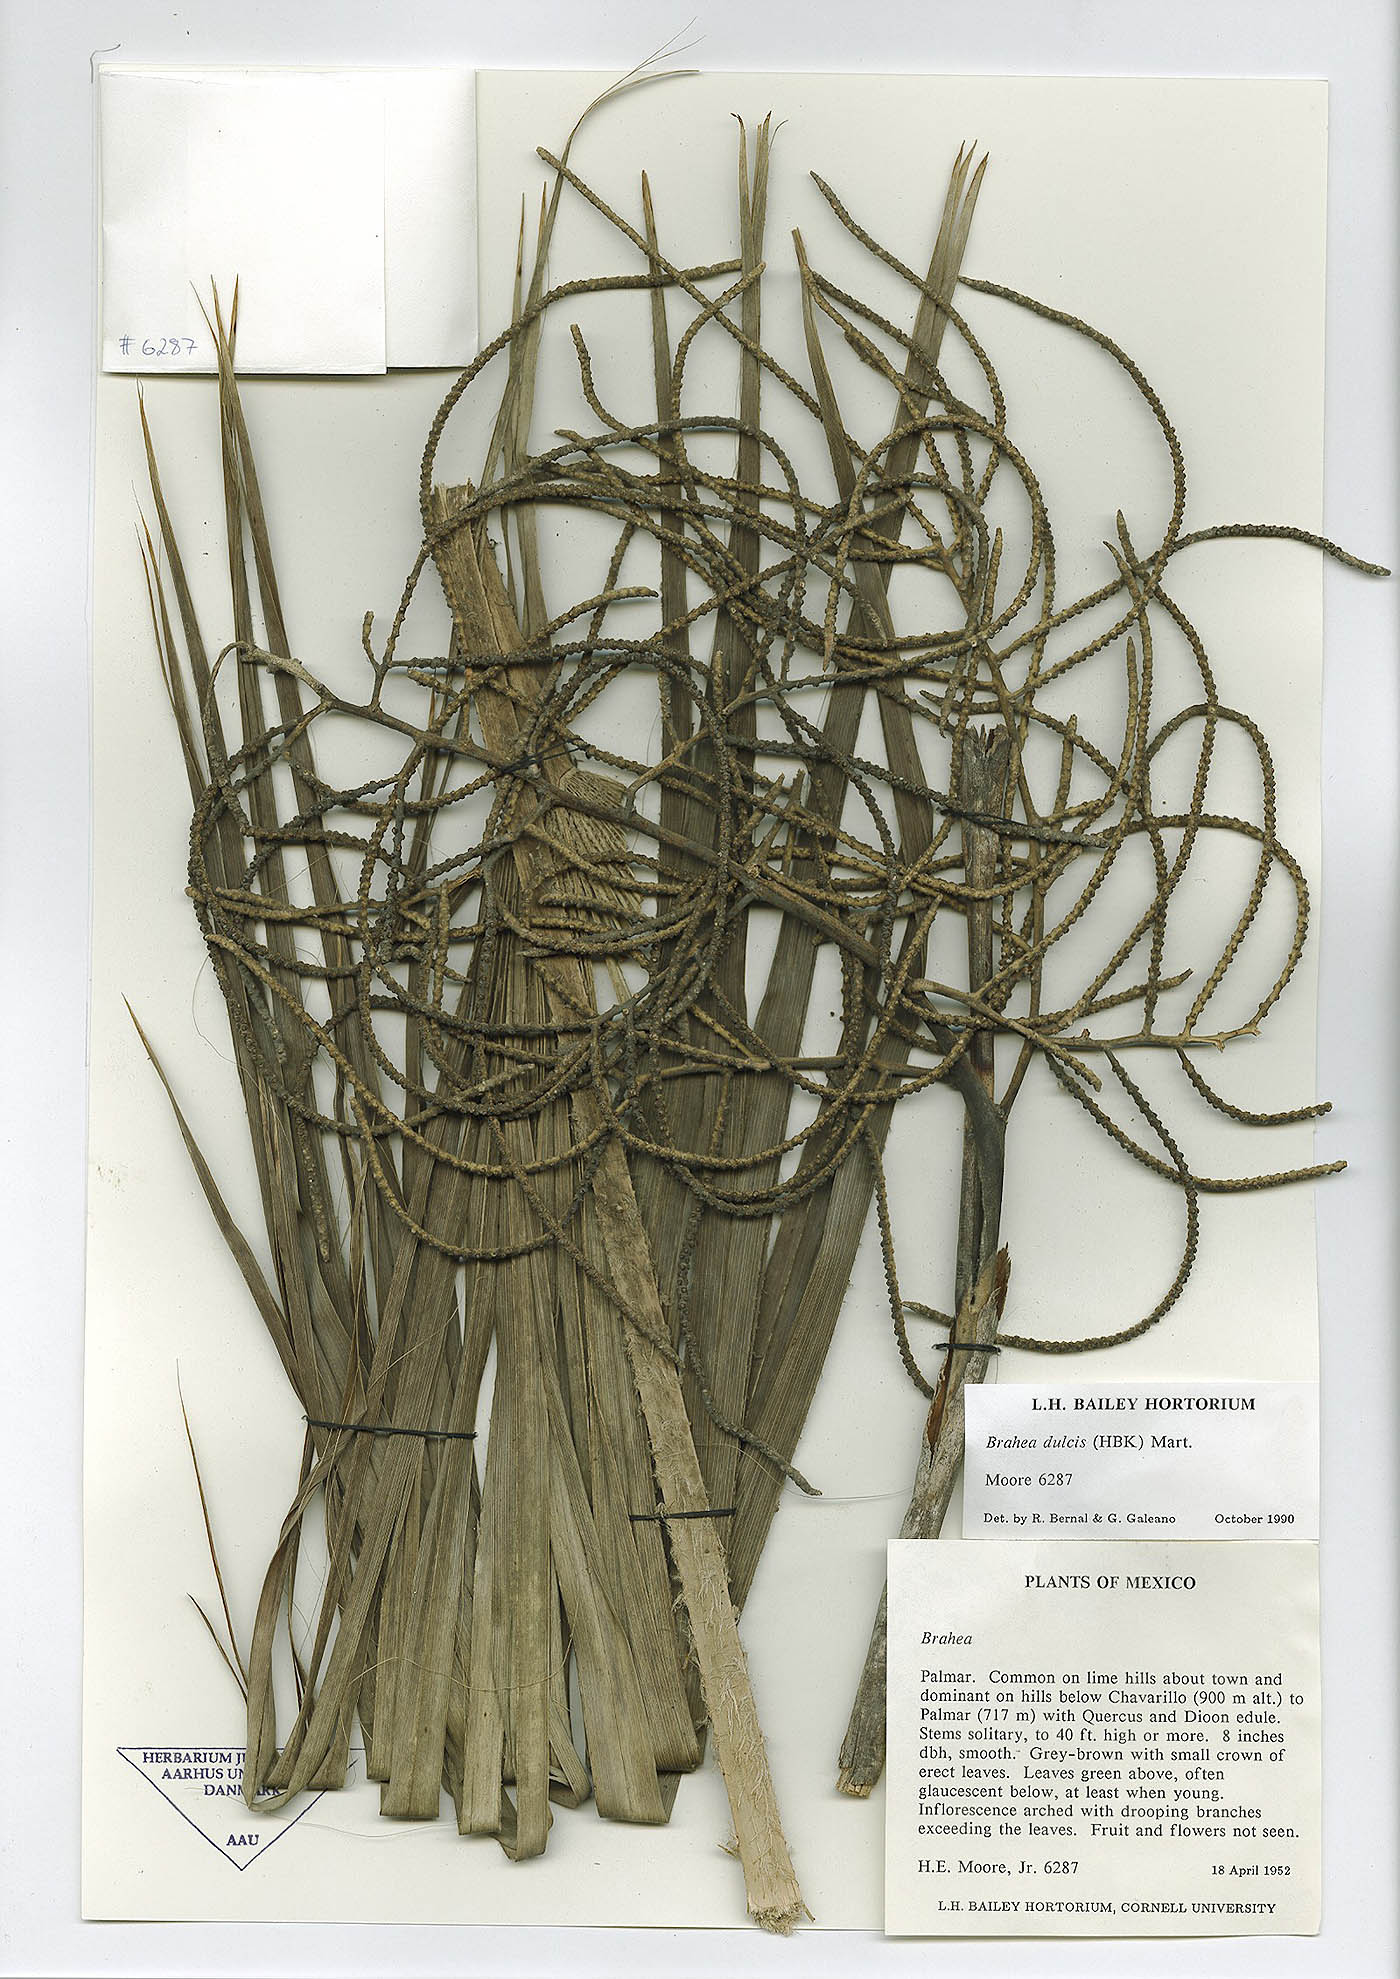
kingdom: Plantae
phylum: Tracheophyta
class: Liliopsida
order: Arecales
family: Arecaceae
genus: Brahea
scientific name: Brahea dulcis
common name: Apak palm
